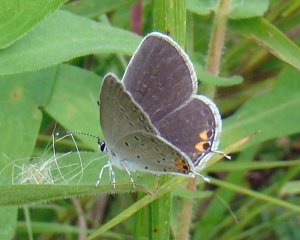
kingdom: Animalia
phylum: Arthropoda
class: Insecta
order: Lepidoptera
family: Lycaenidae
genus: Elkalyce
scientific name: Elkalyce comyntas
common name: Eastern Tailed-Blue
